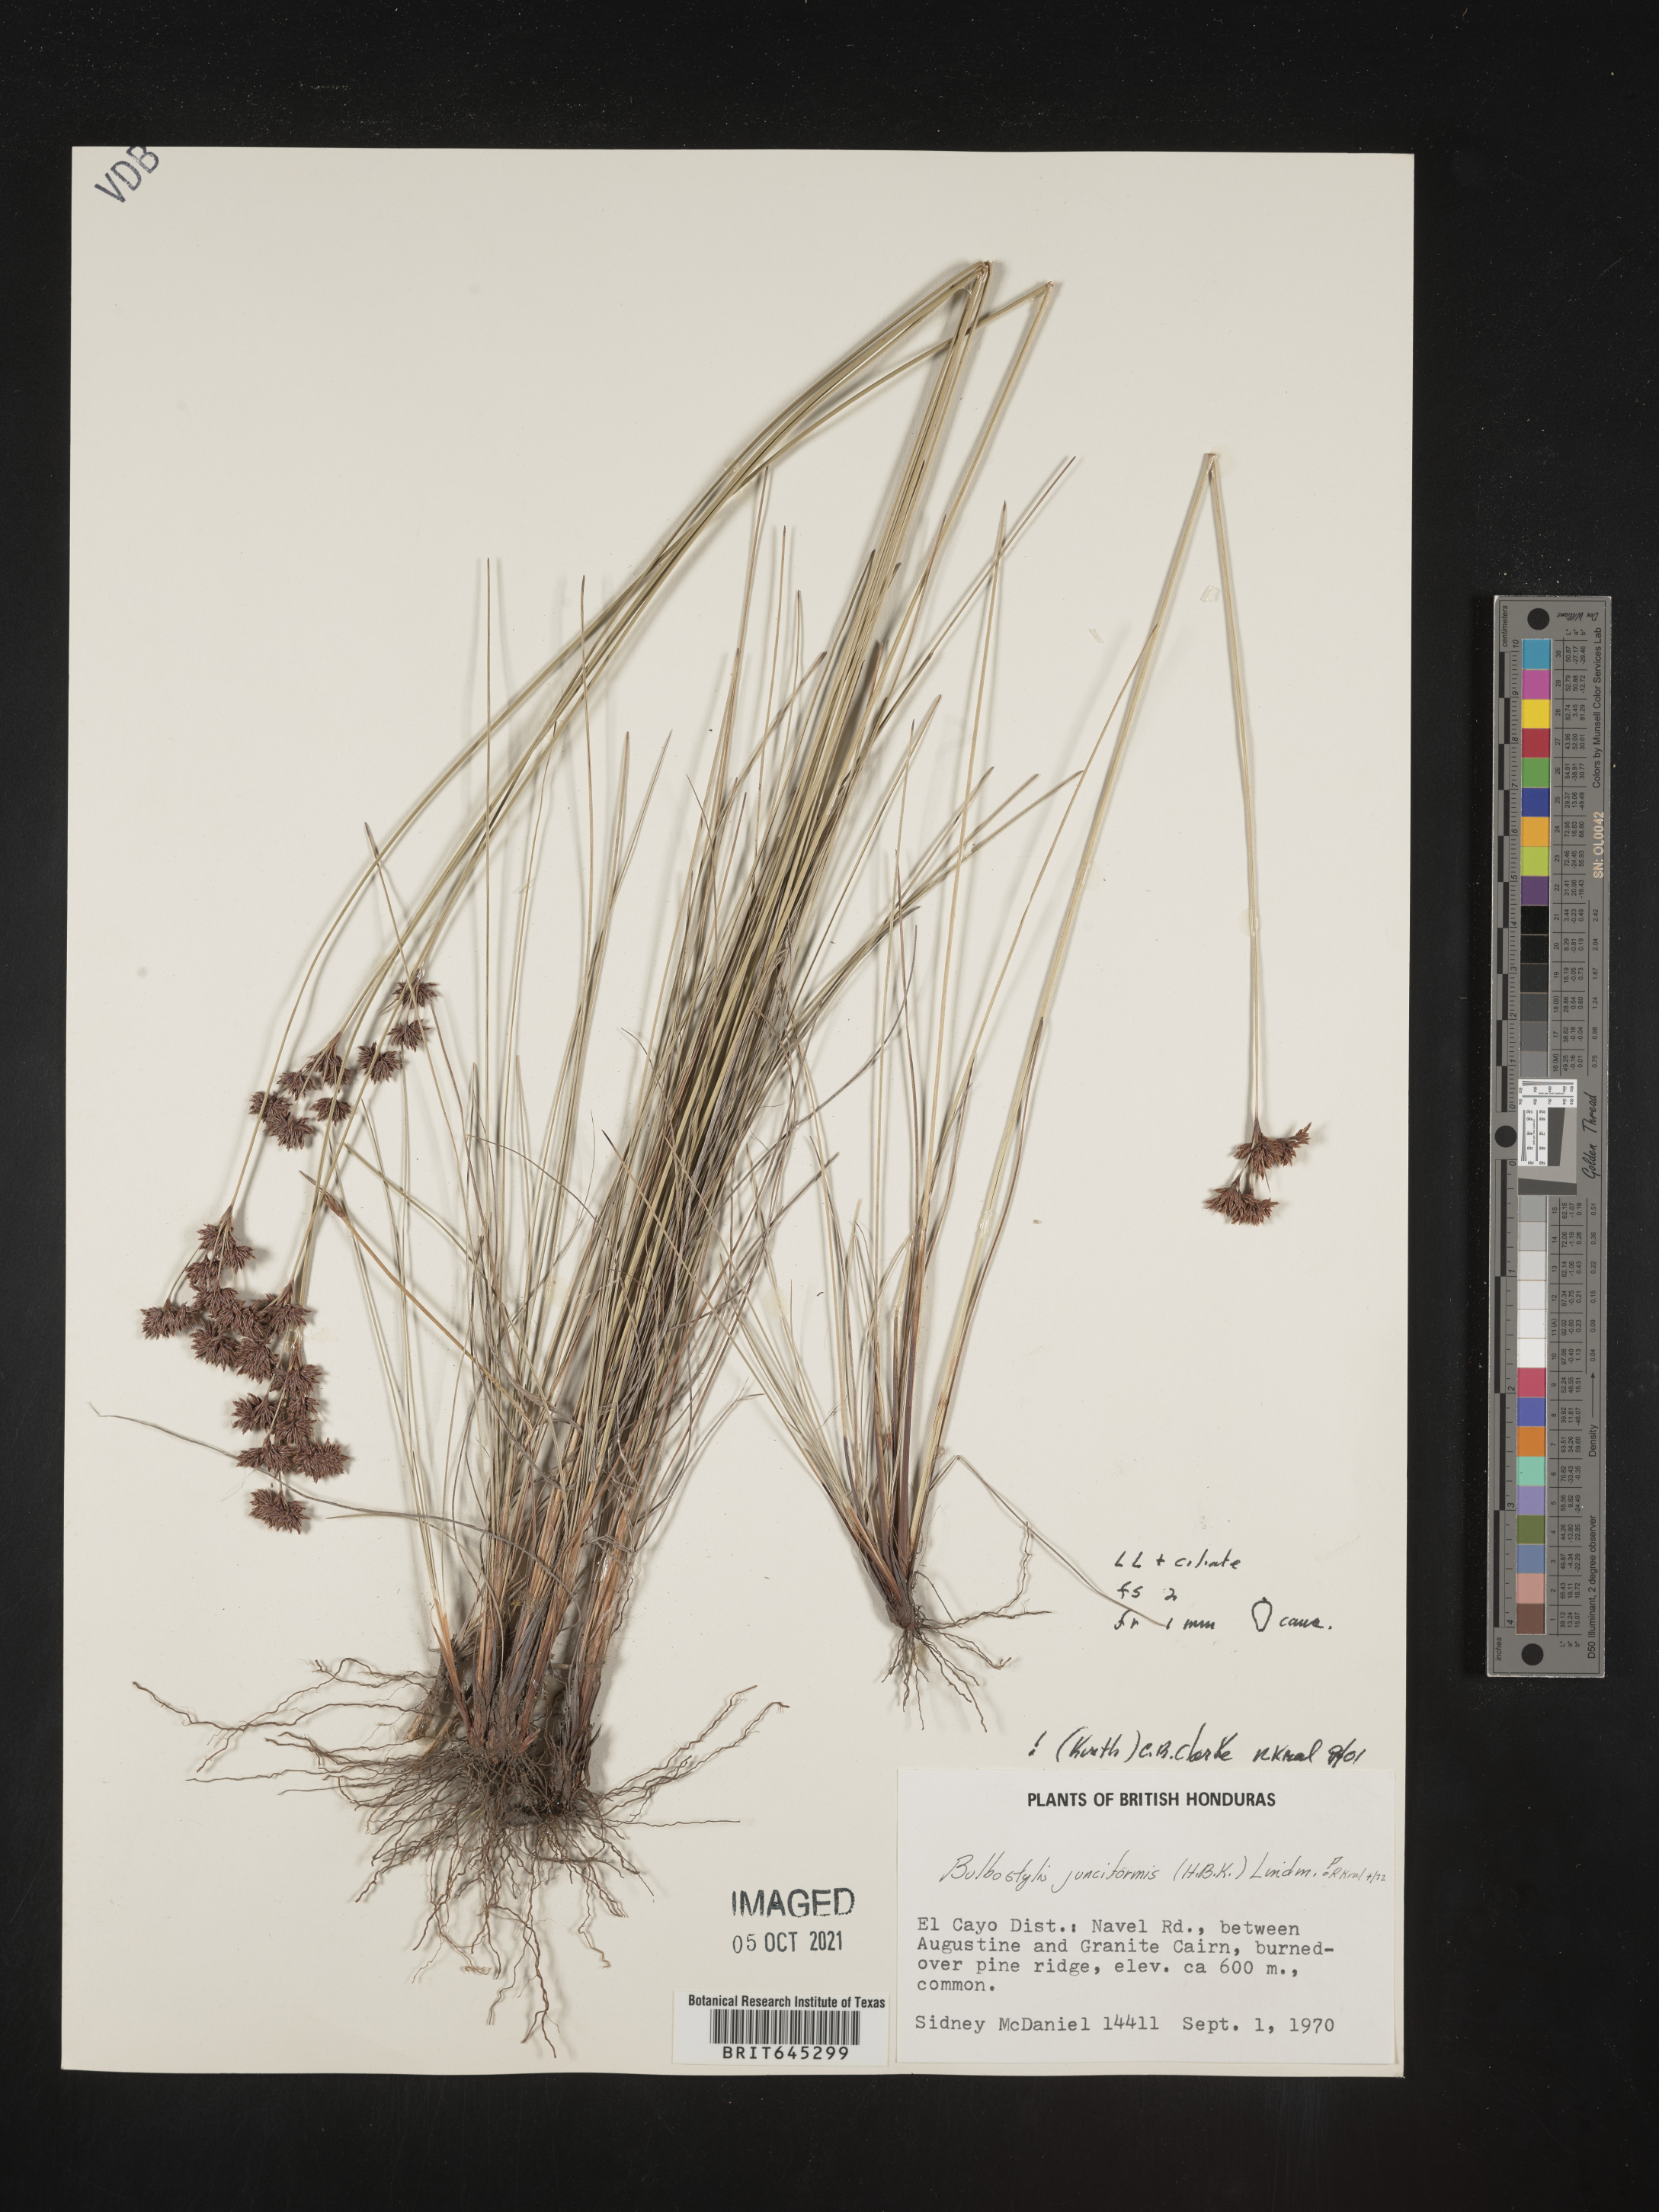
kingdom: Plantae
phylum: Tracheophyta
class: Liliopsida
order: Poales
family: Cyperaceae
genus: Bulbostylis
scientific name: Bulbostylis junciformis
